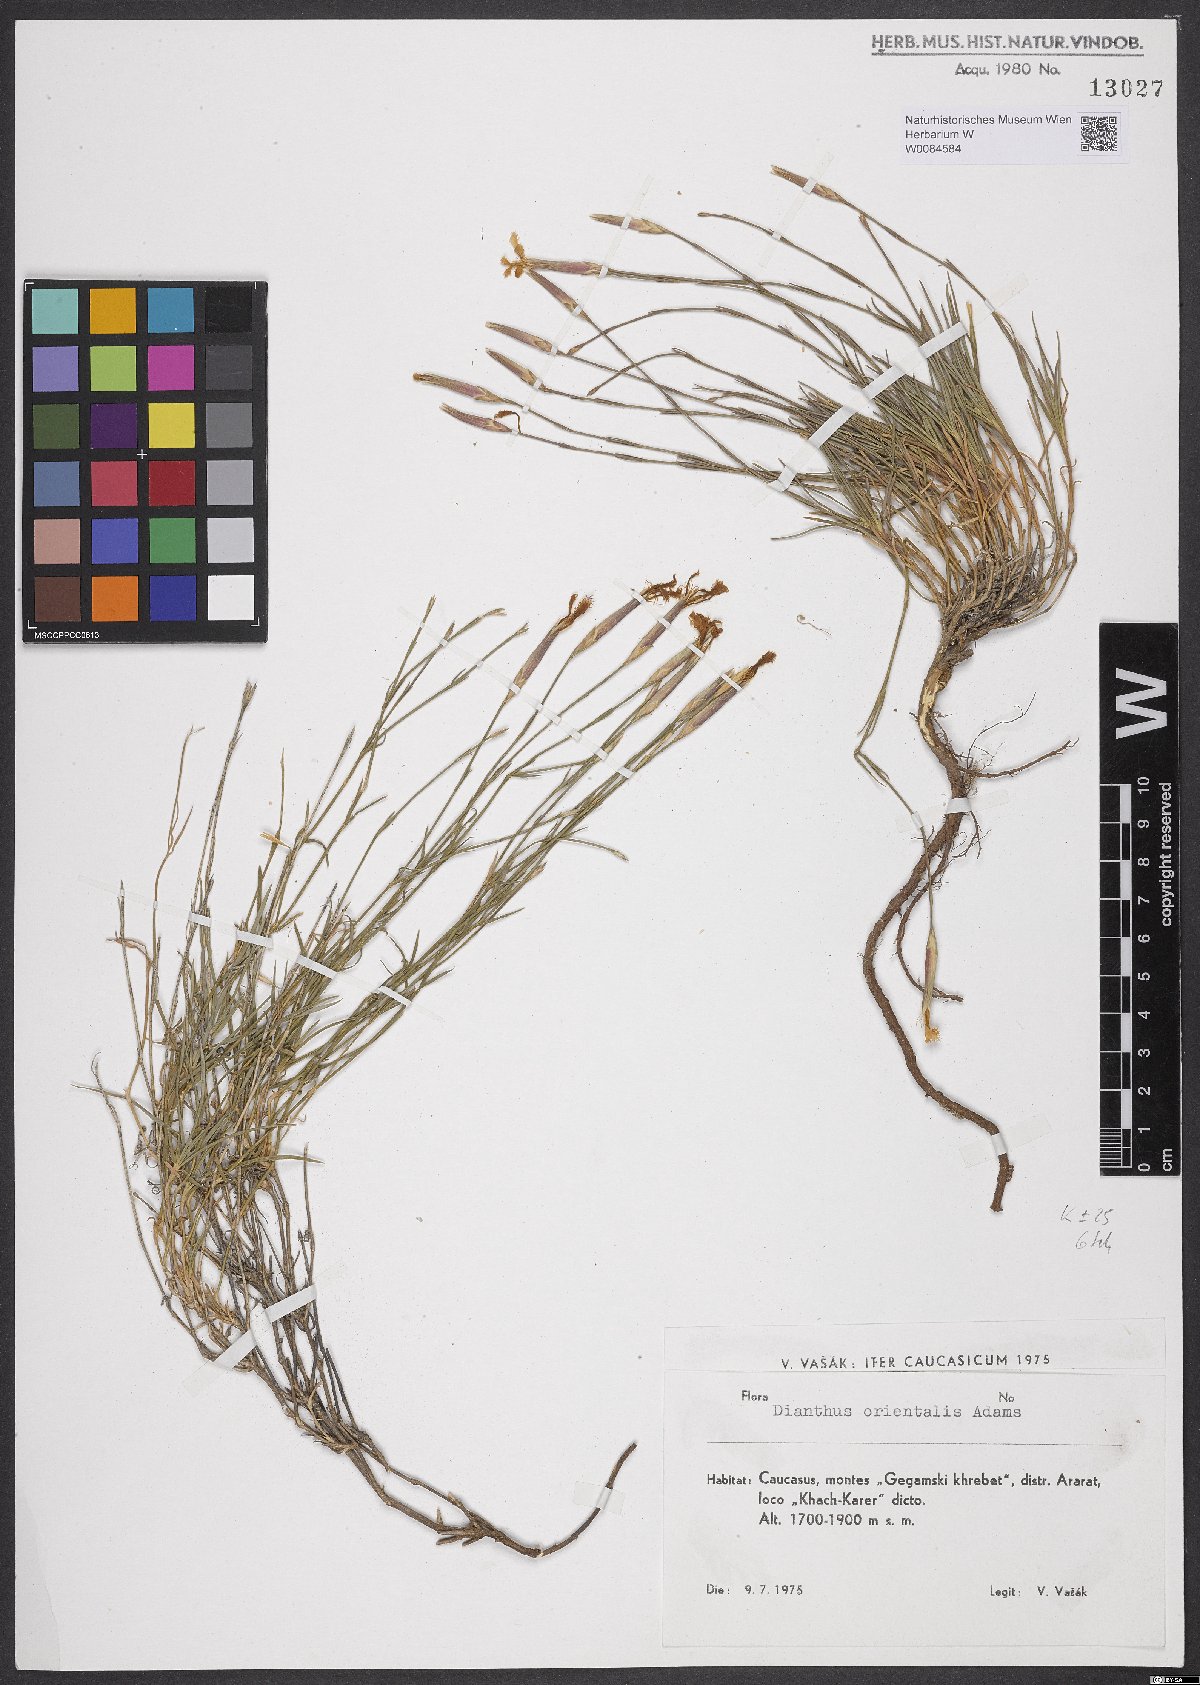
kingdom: Plantae
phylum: Tracheophyta
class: Magnoliopsida
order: Caryophyllales
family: Caryophyllaceae
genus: Dianthus
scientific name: Dianthus orientalis
